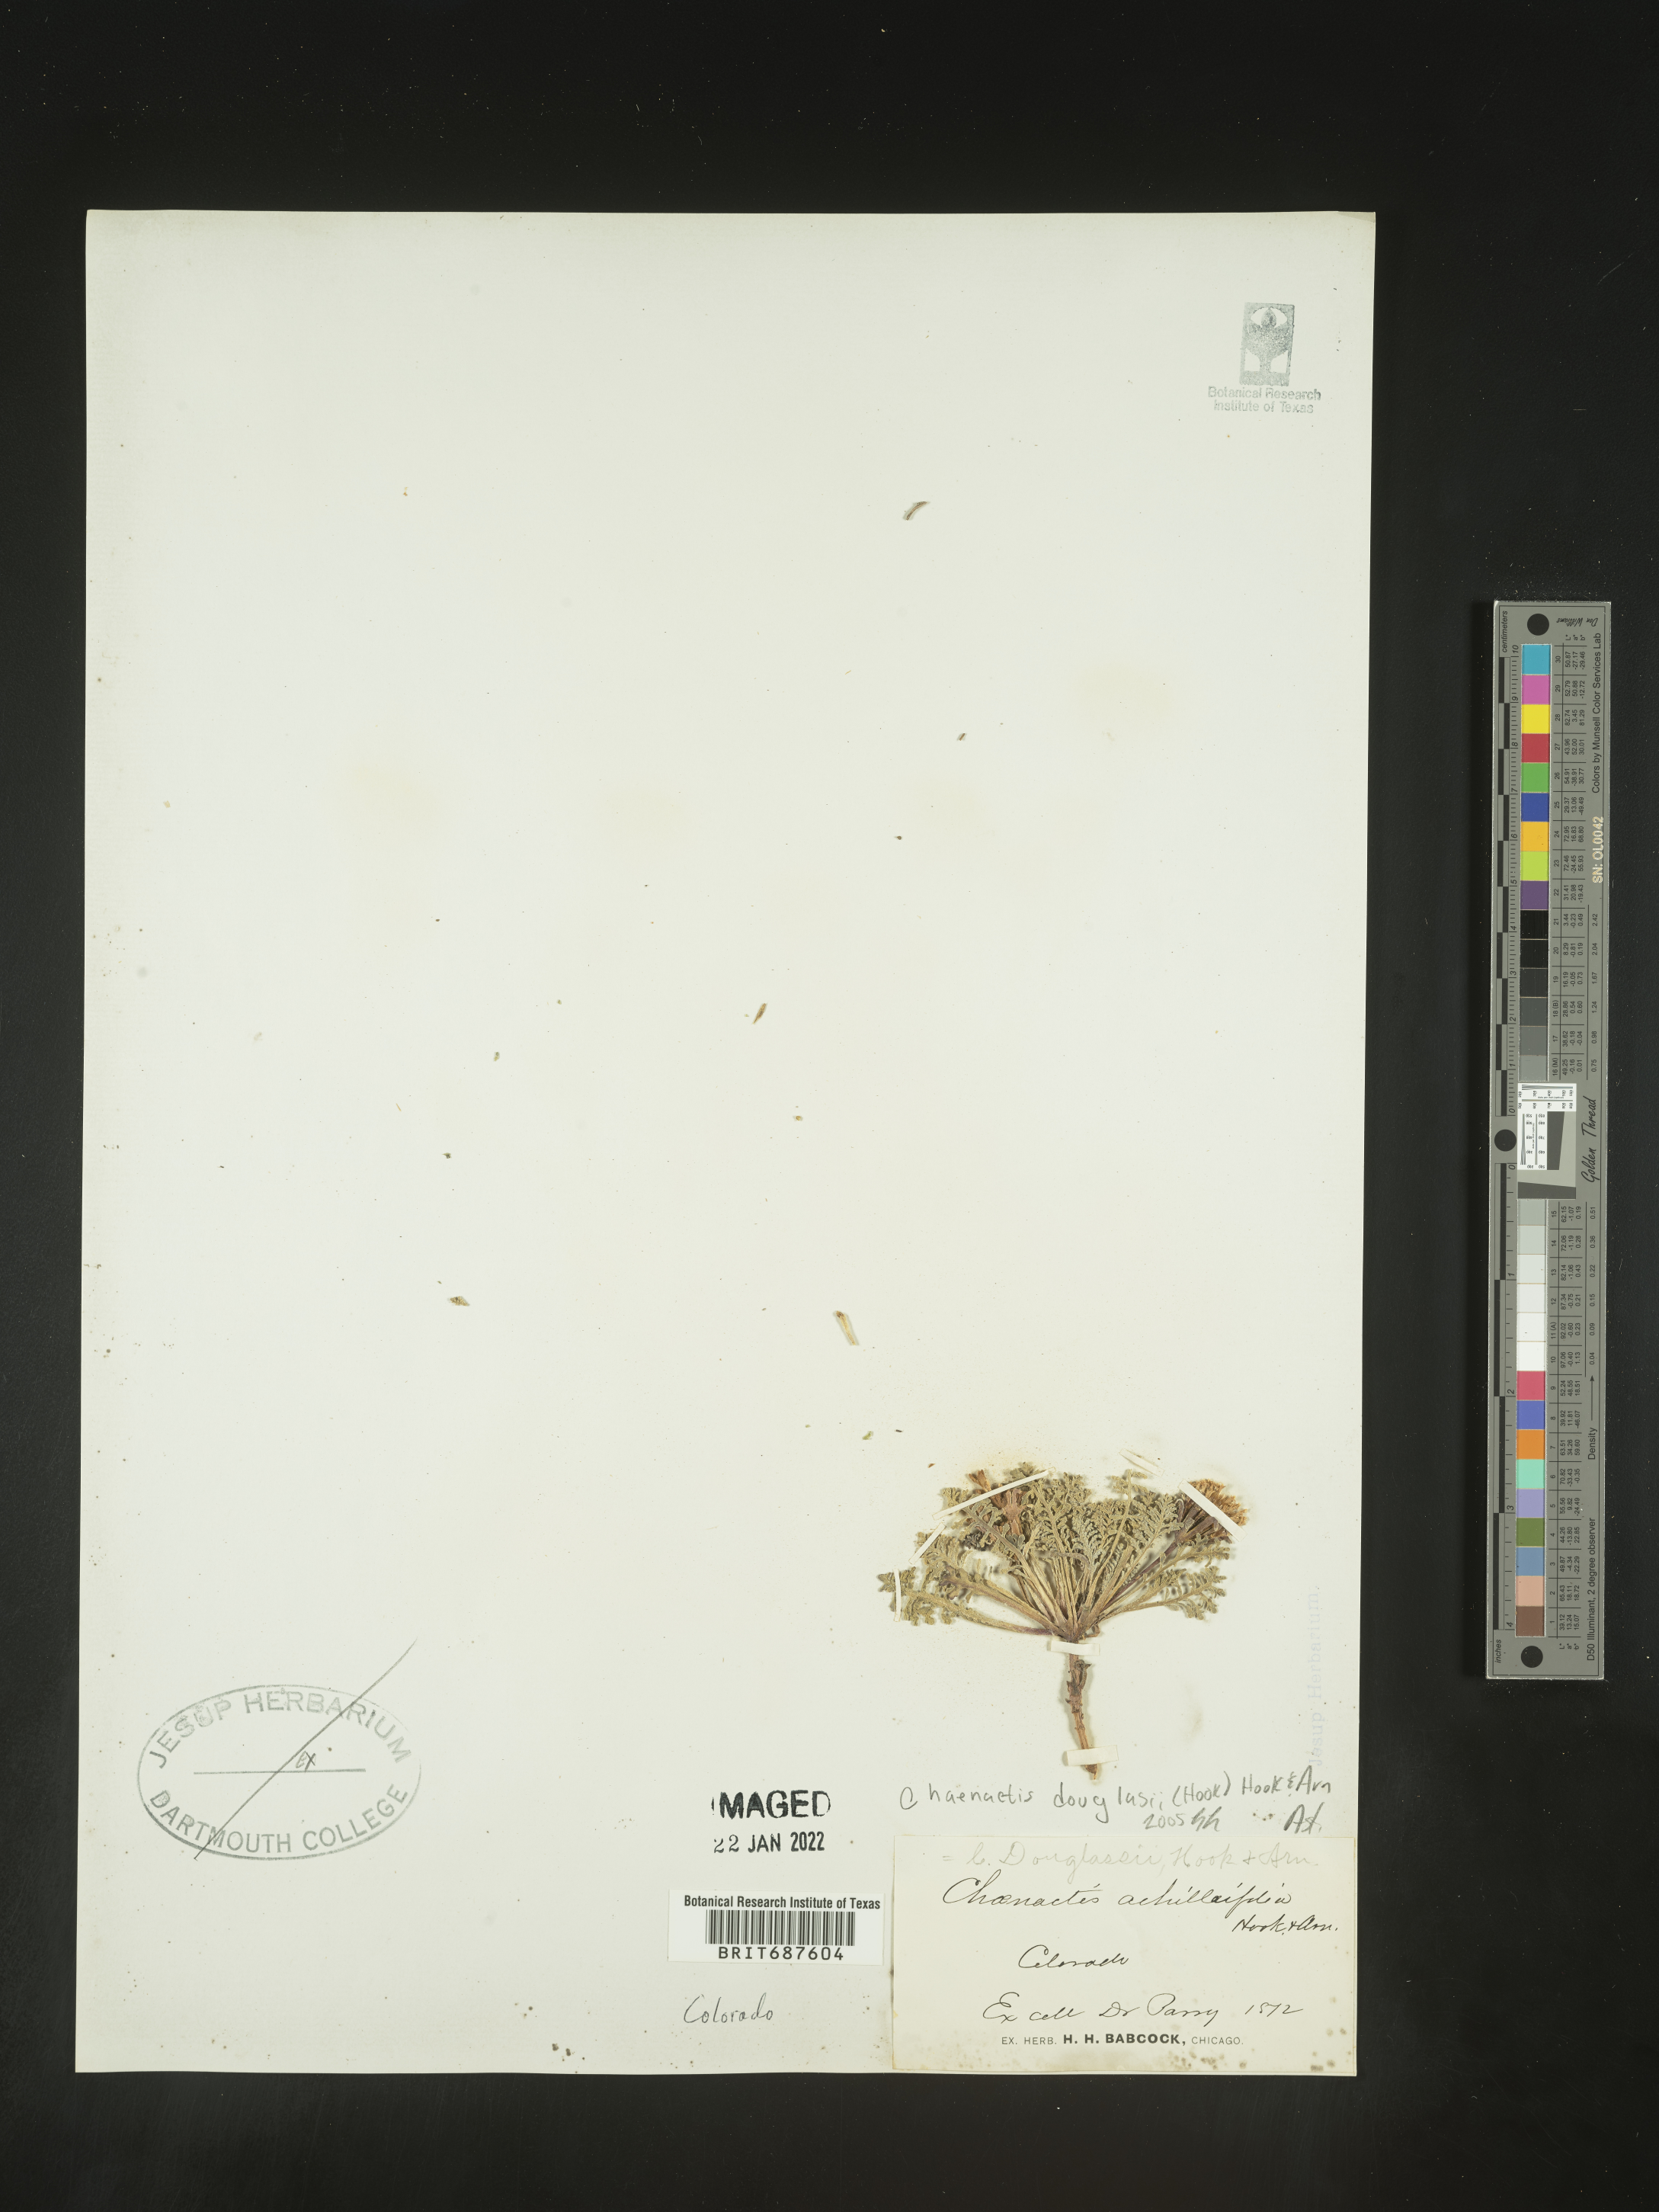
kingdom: Plantae
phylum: Tracheophyta
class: Magnoliopsida
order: Asterales
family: Asteraceae
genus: Chaenactis
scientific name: Chaenactis douglasii
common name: Hoary pincushion
